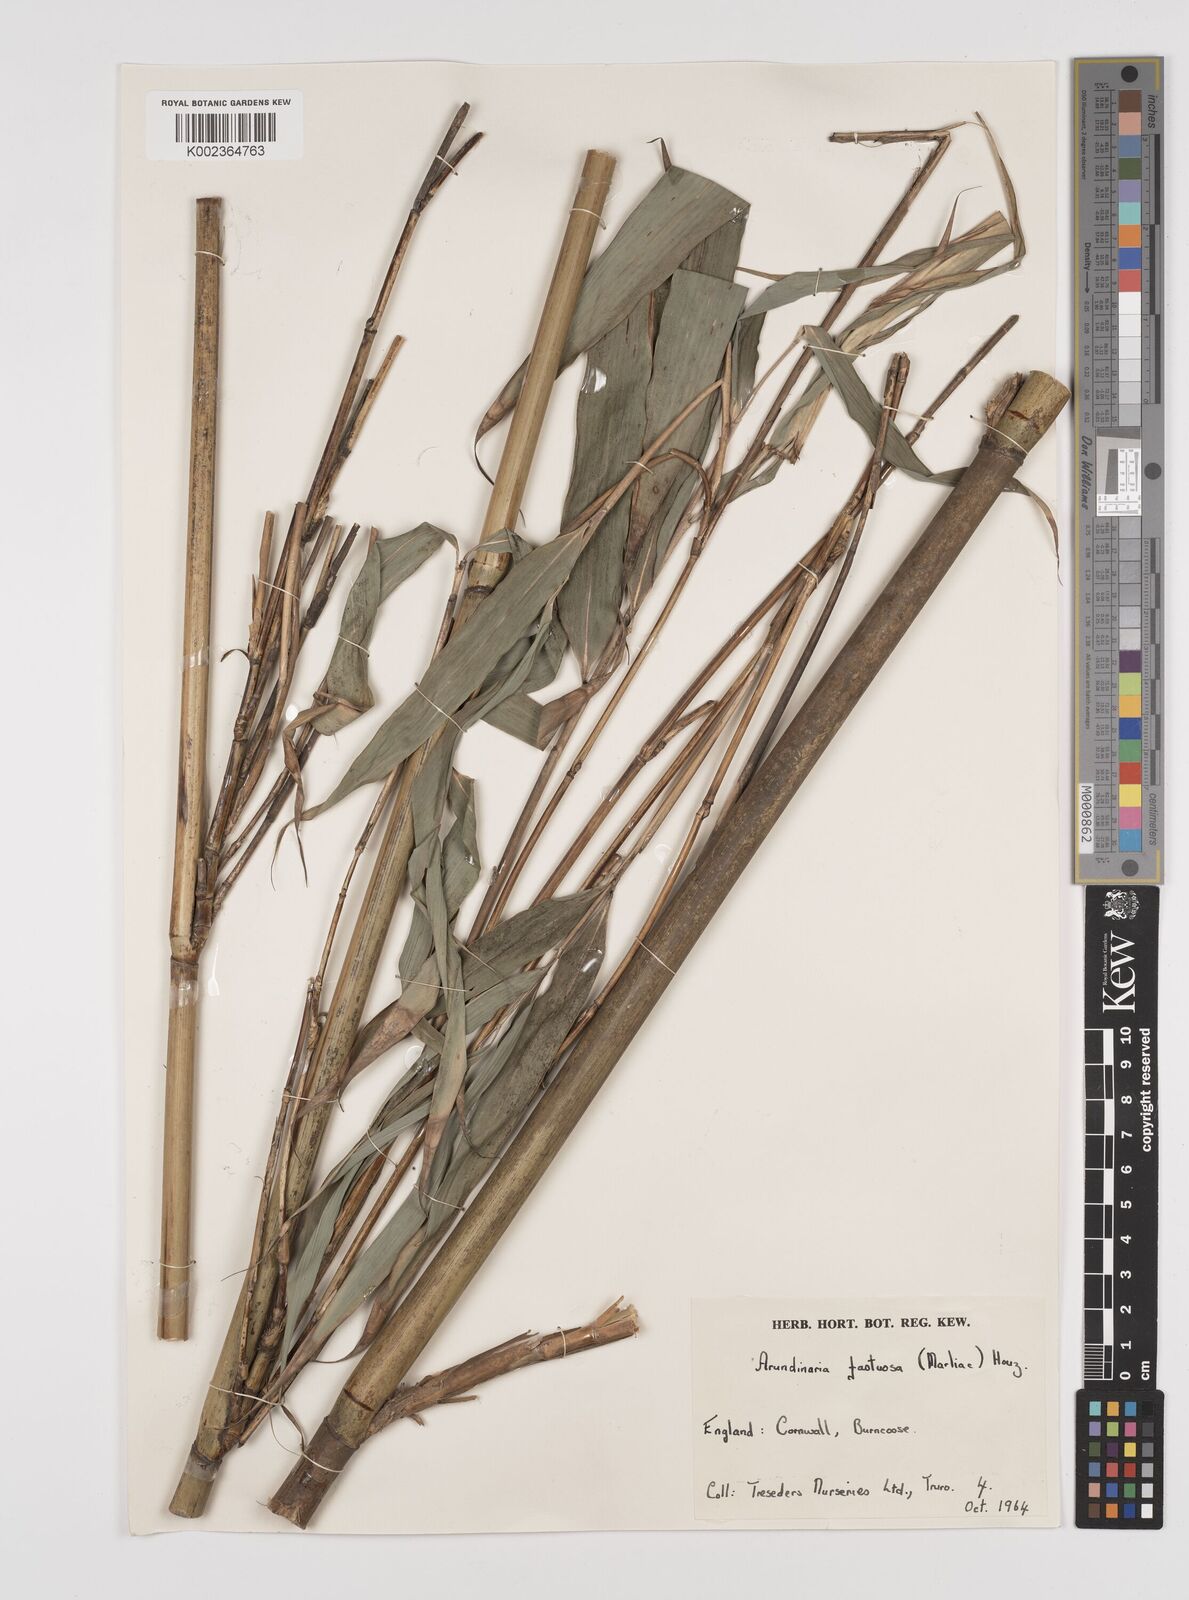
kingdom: Plantae
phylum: Tracheophyta
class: Liliopsida
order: Poales
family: Poaceae
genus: Semiarundinaria
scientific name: Semiarundinaria fastuosa
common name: Narihira bamboo
